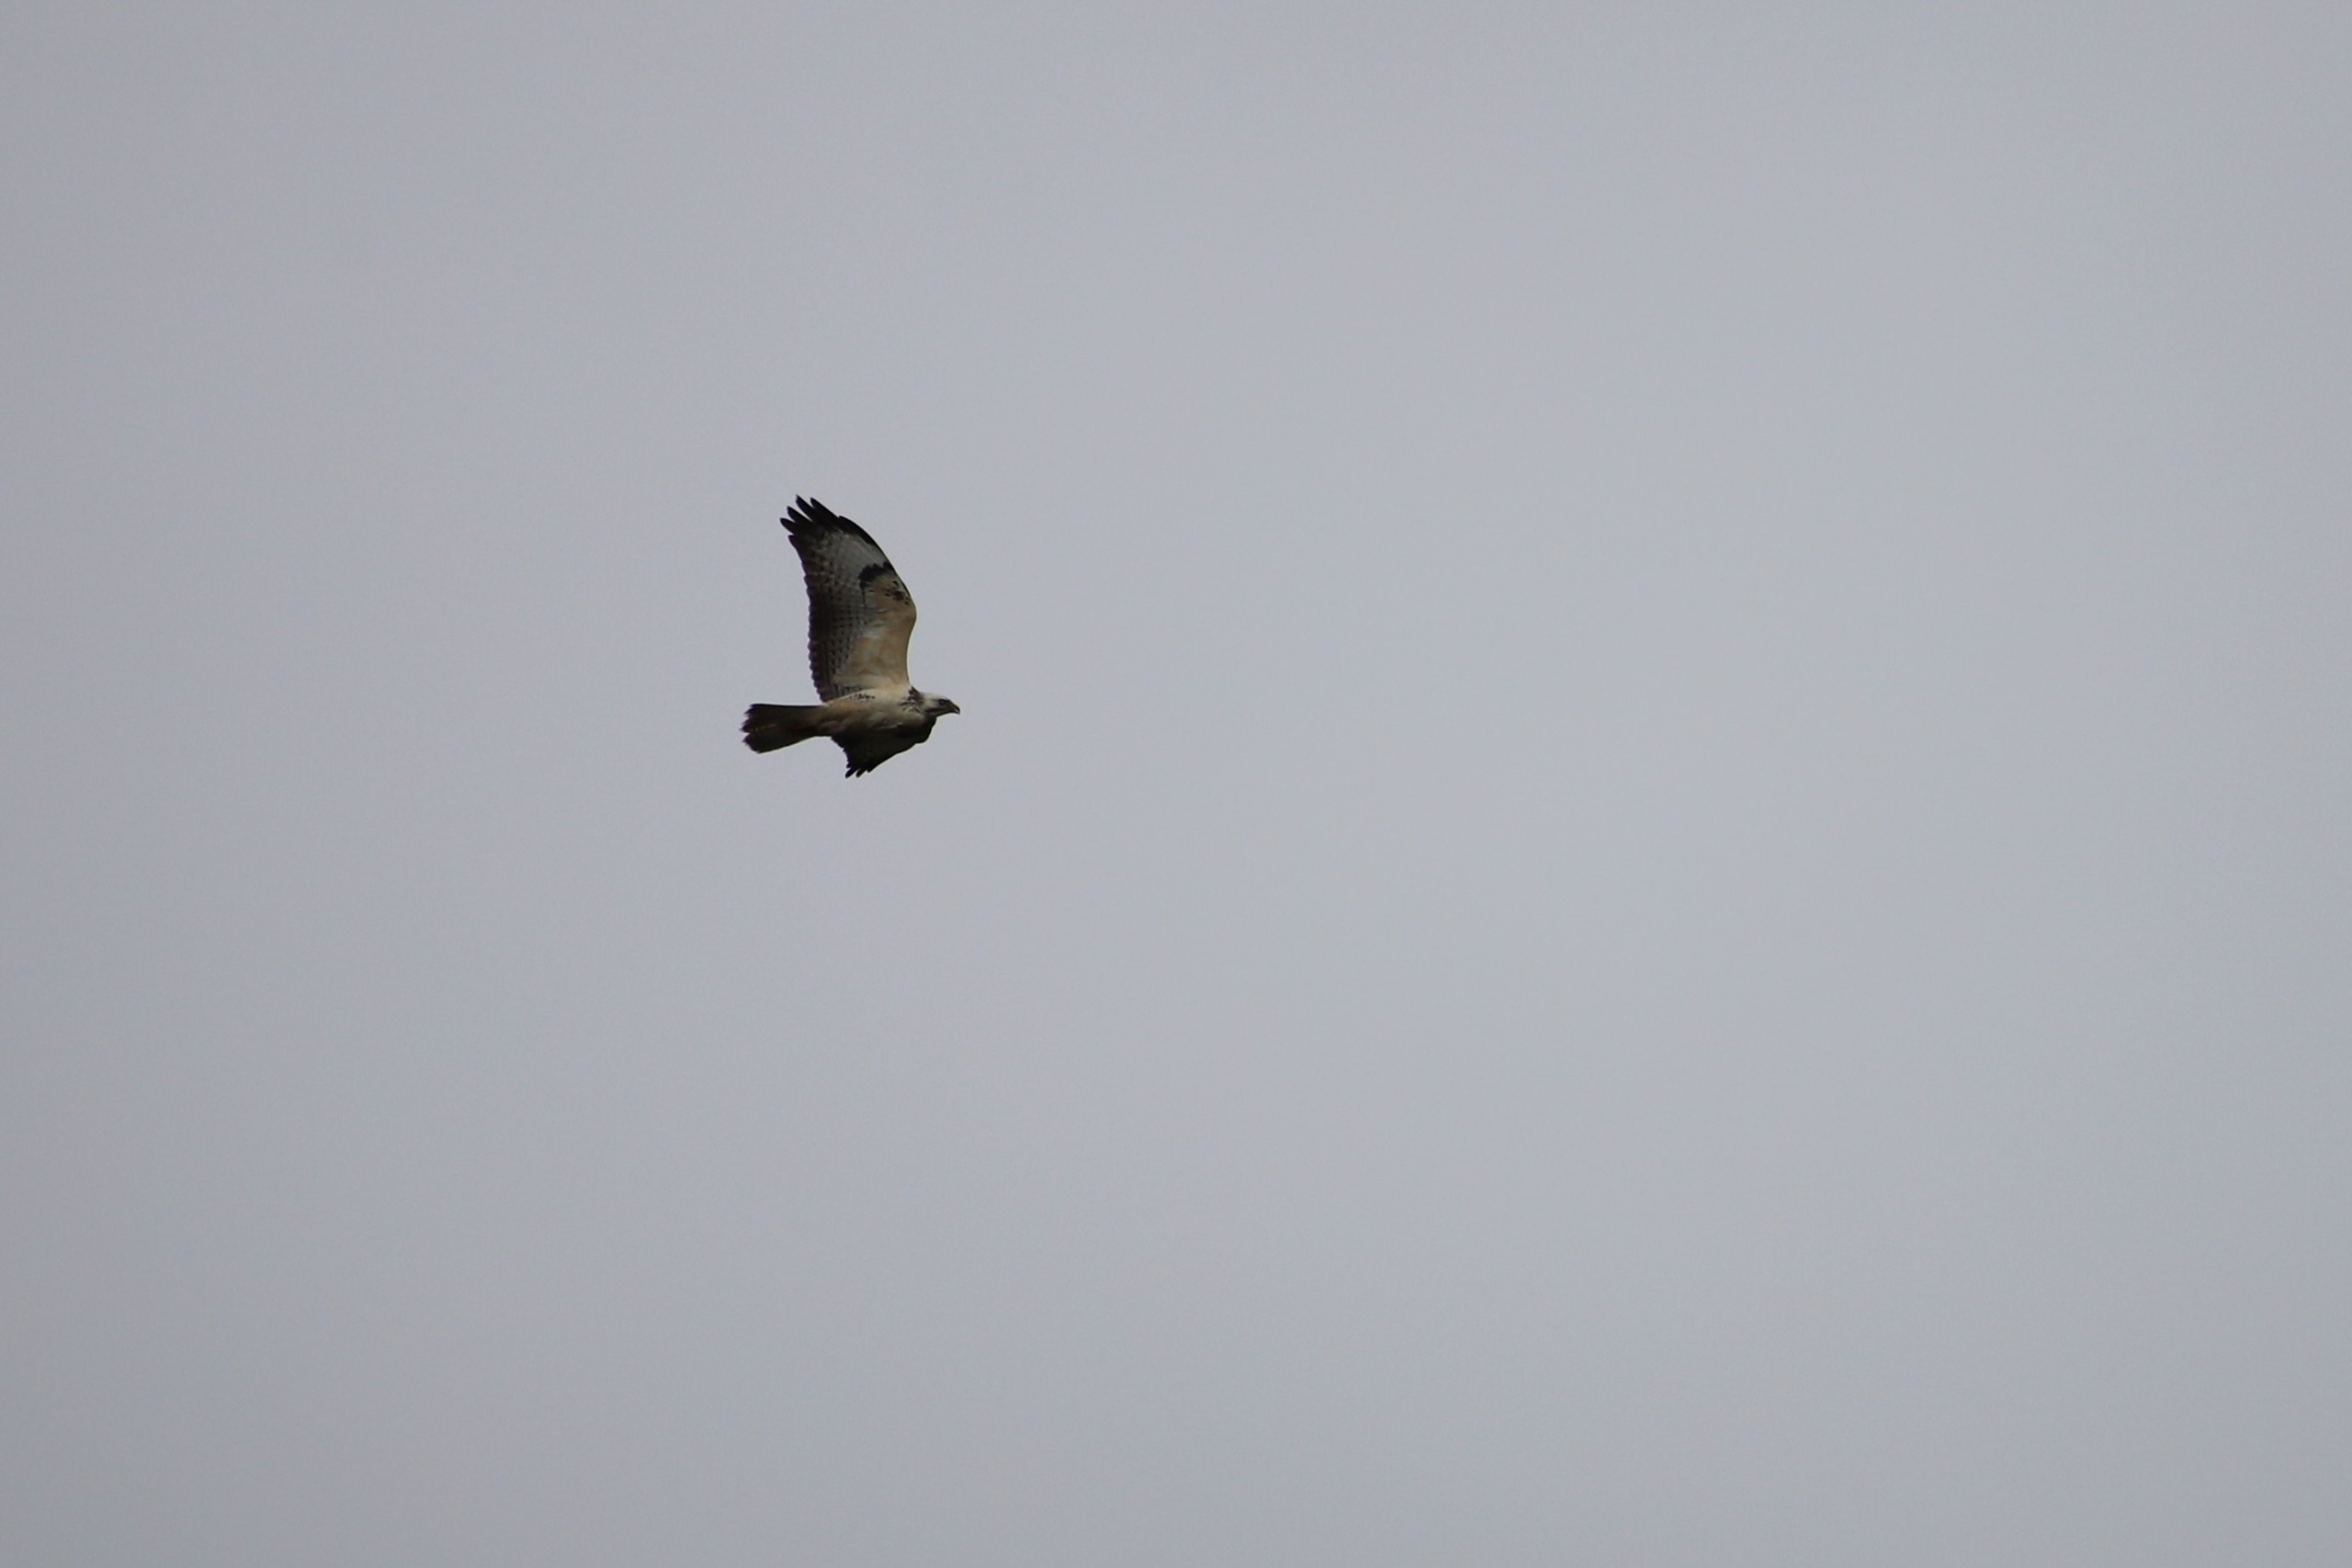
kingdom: Animalia
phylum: Chordata
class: Aves
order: Accipitriformes
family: Accipitridae
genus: Buteo
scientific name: Buteo buteo
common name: Musvåge
